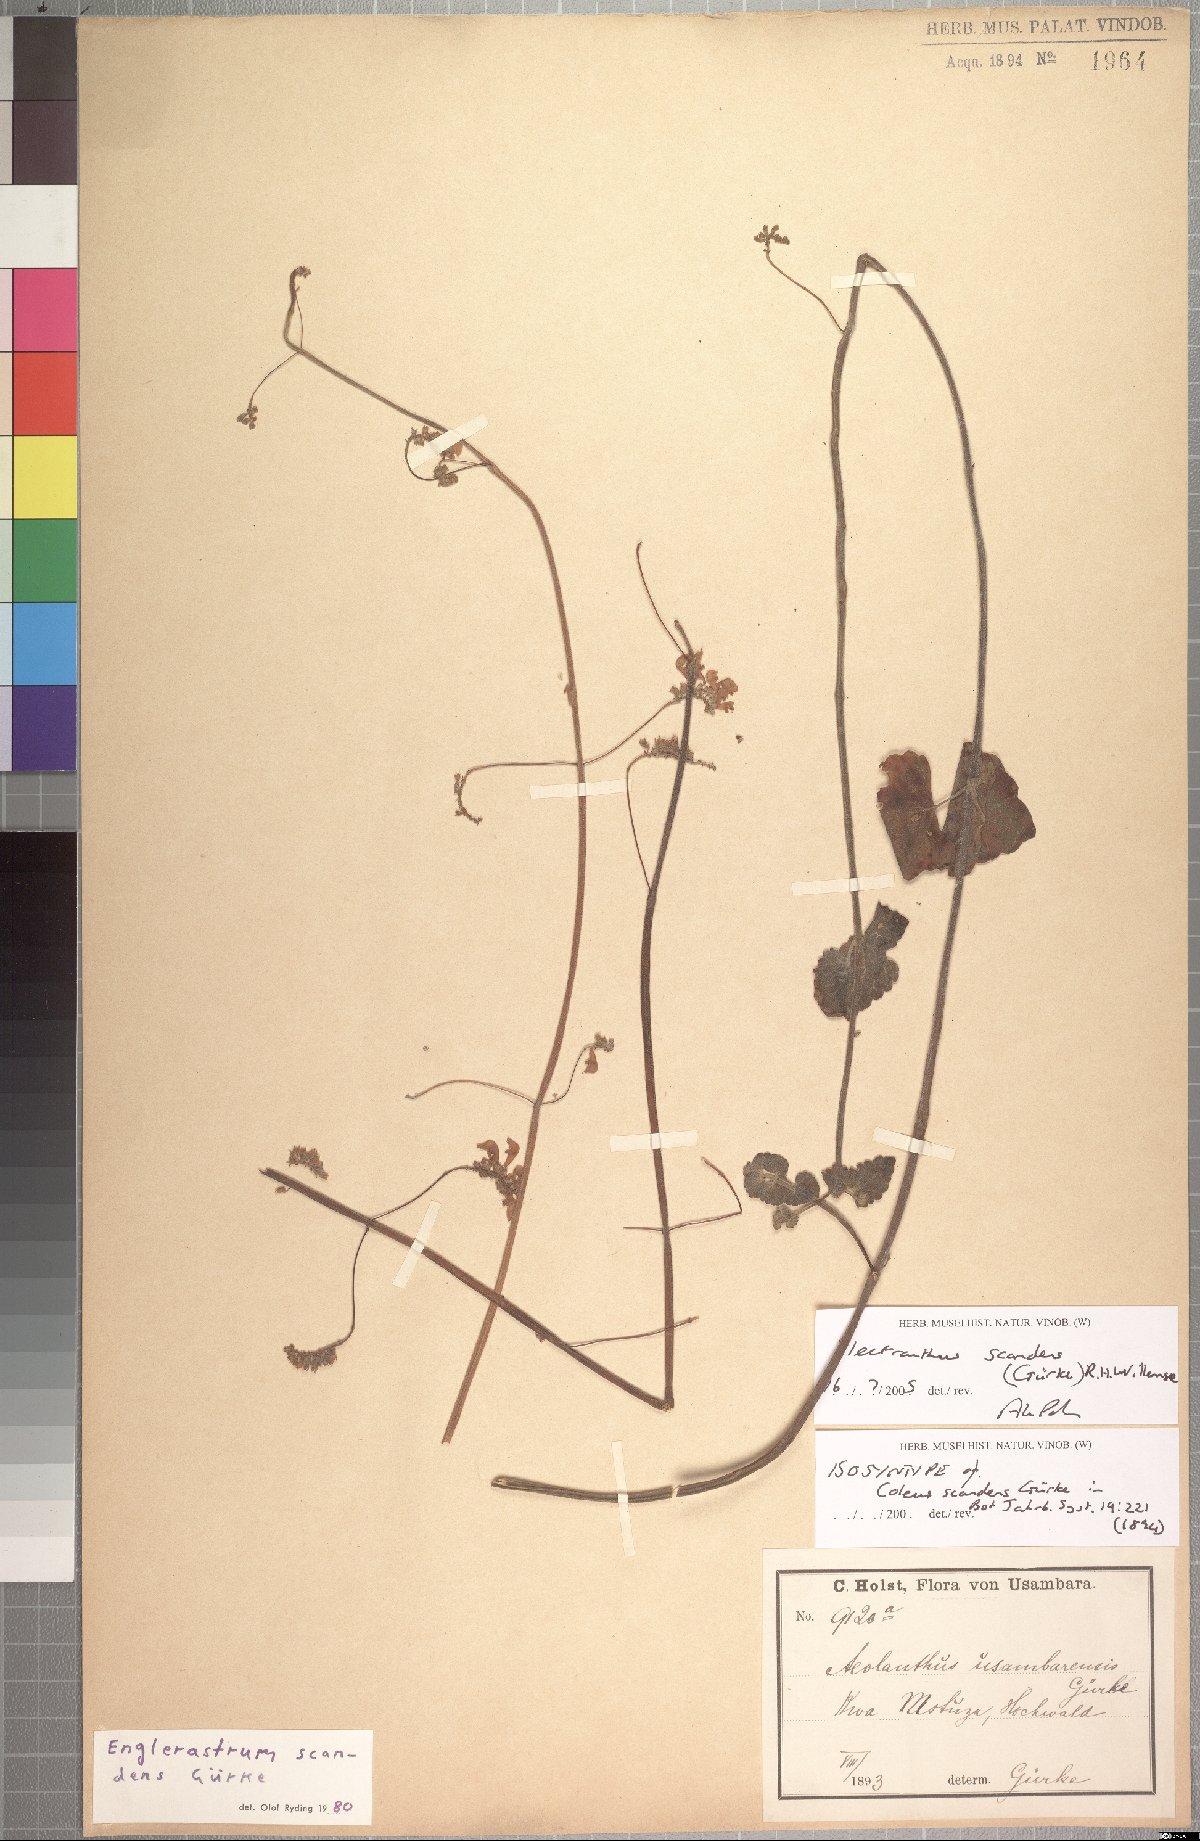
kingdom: Plantae
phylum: Tracheophyta
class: Magnoliopsida
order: Lamiales
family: Lamiaceae
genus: Coleus
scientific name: Coleus scandens
